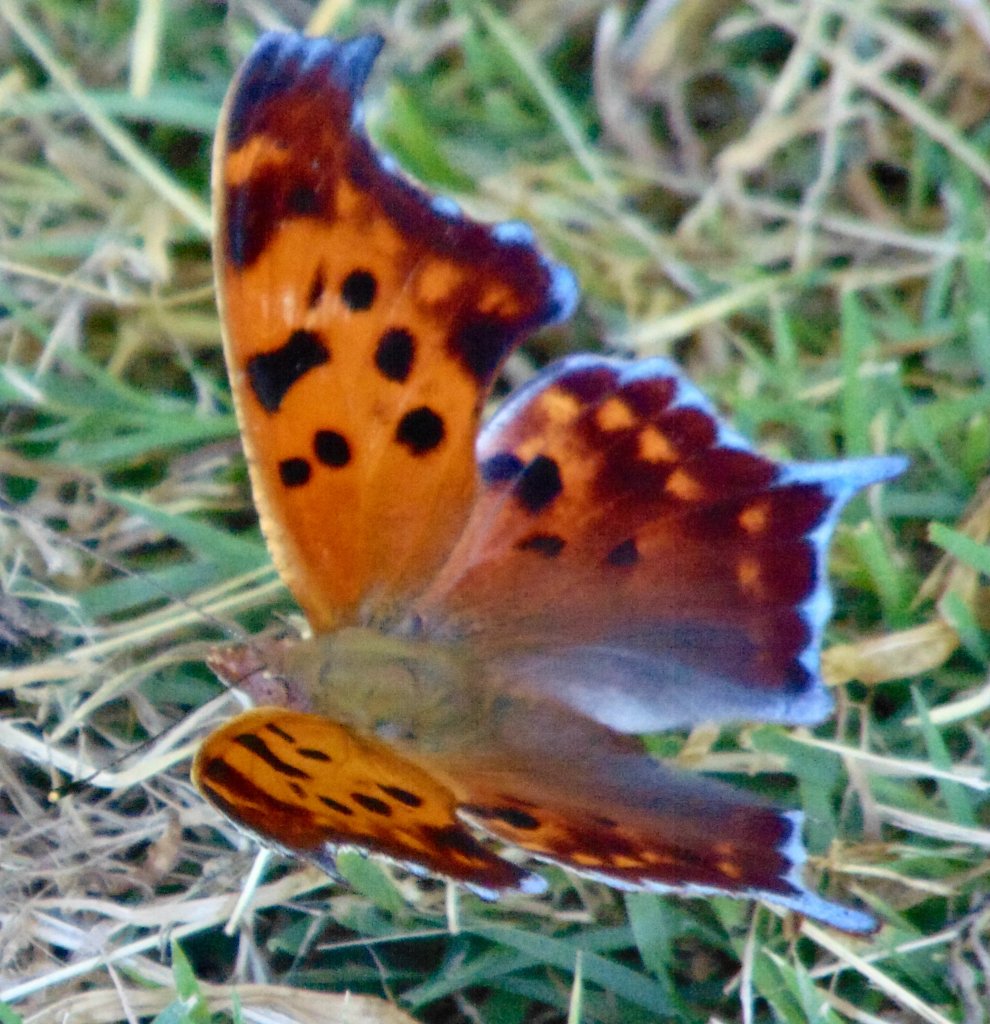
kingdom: Animalia
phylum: Arthropoda
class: Insecta
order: Lepidoptera
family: Nymphalidae
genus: Polygonia
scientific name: Polygonia interrogationis
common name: Question Mark
